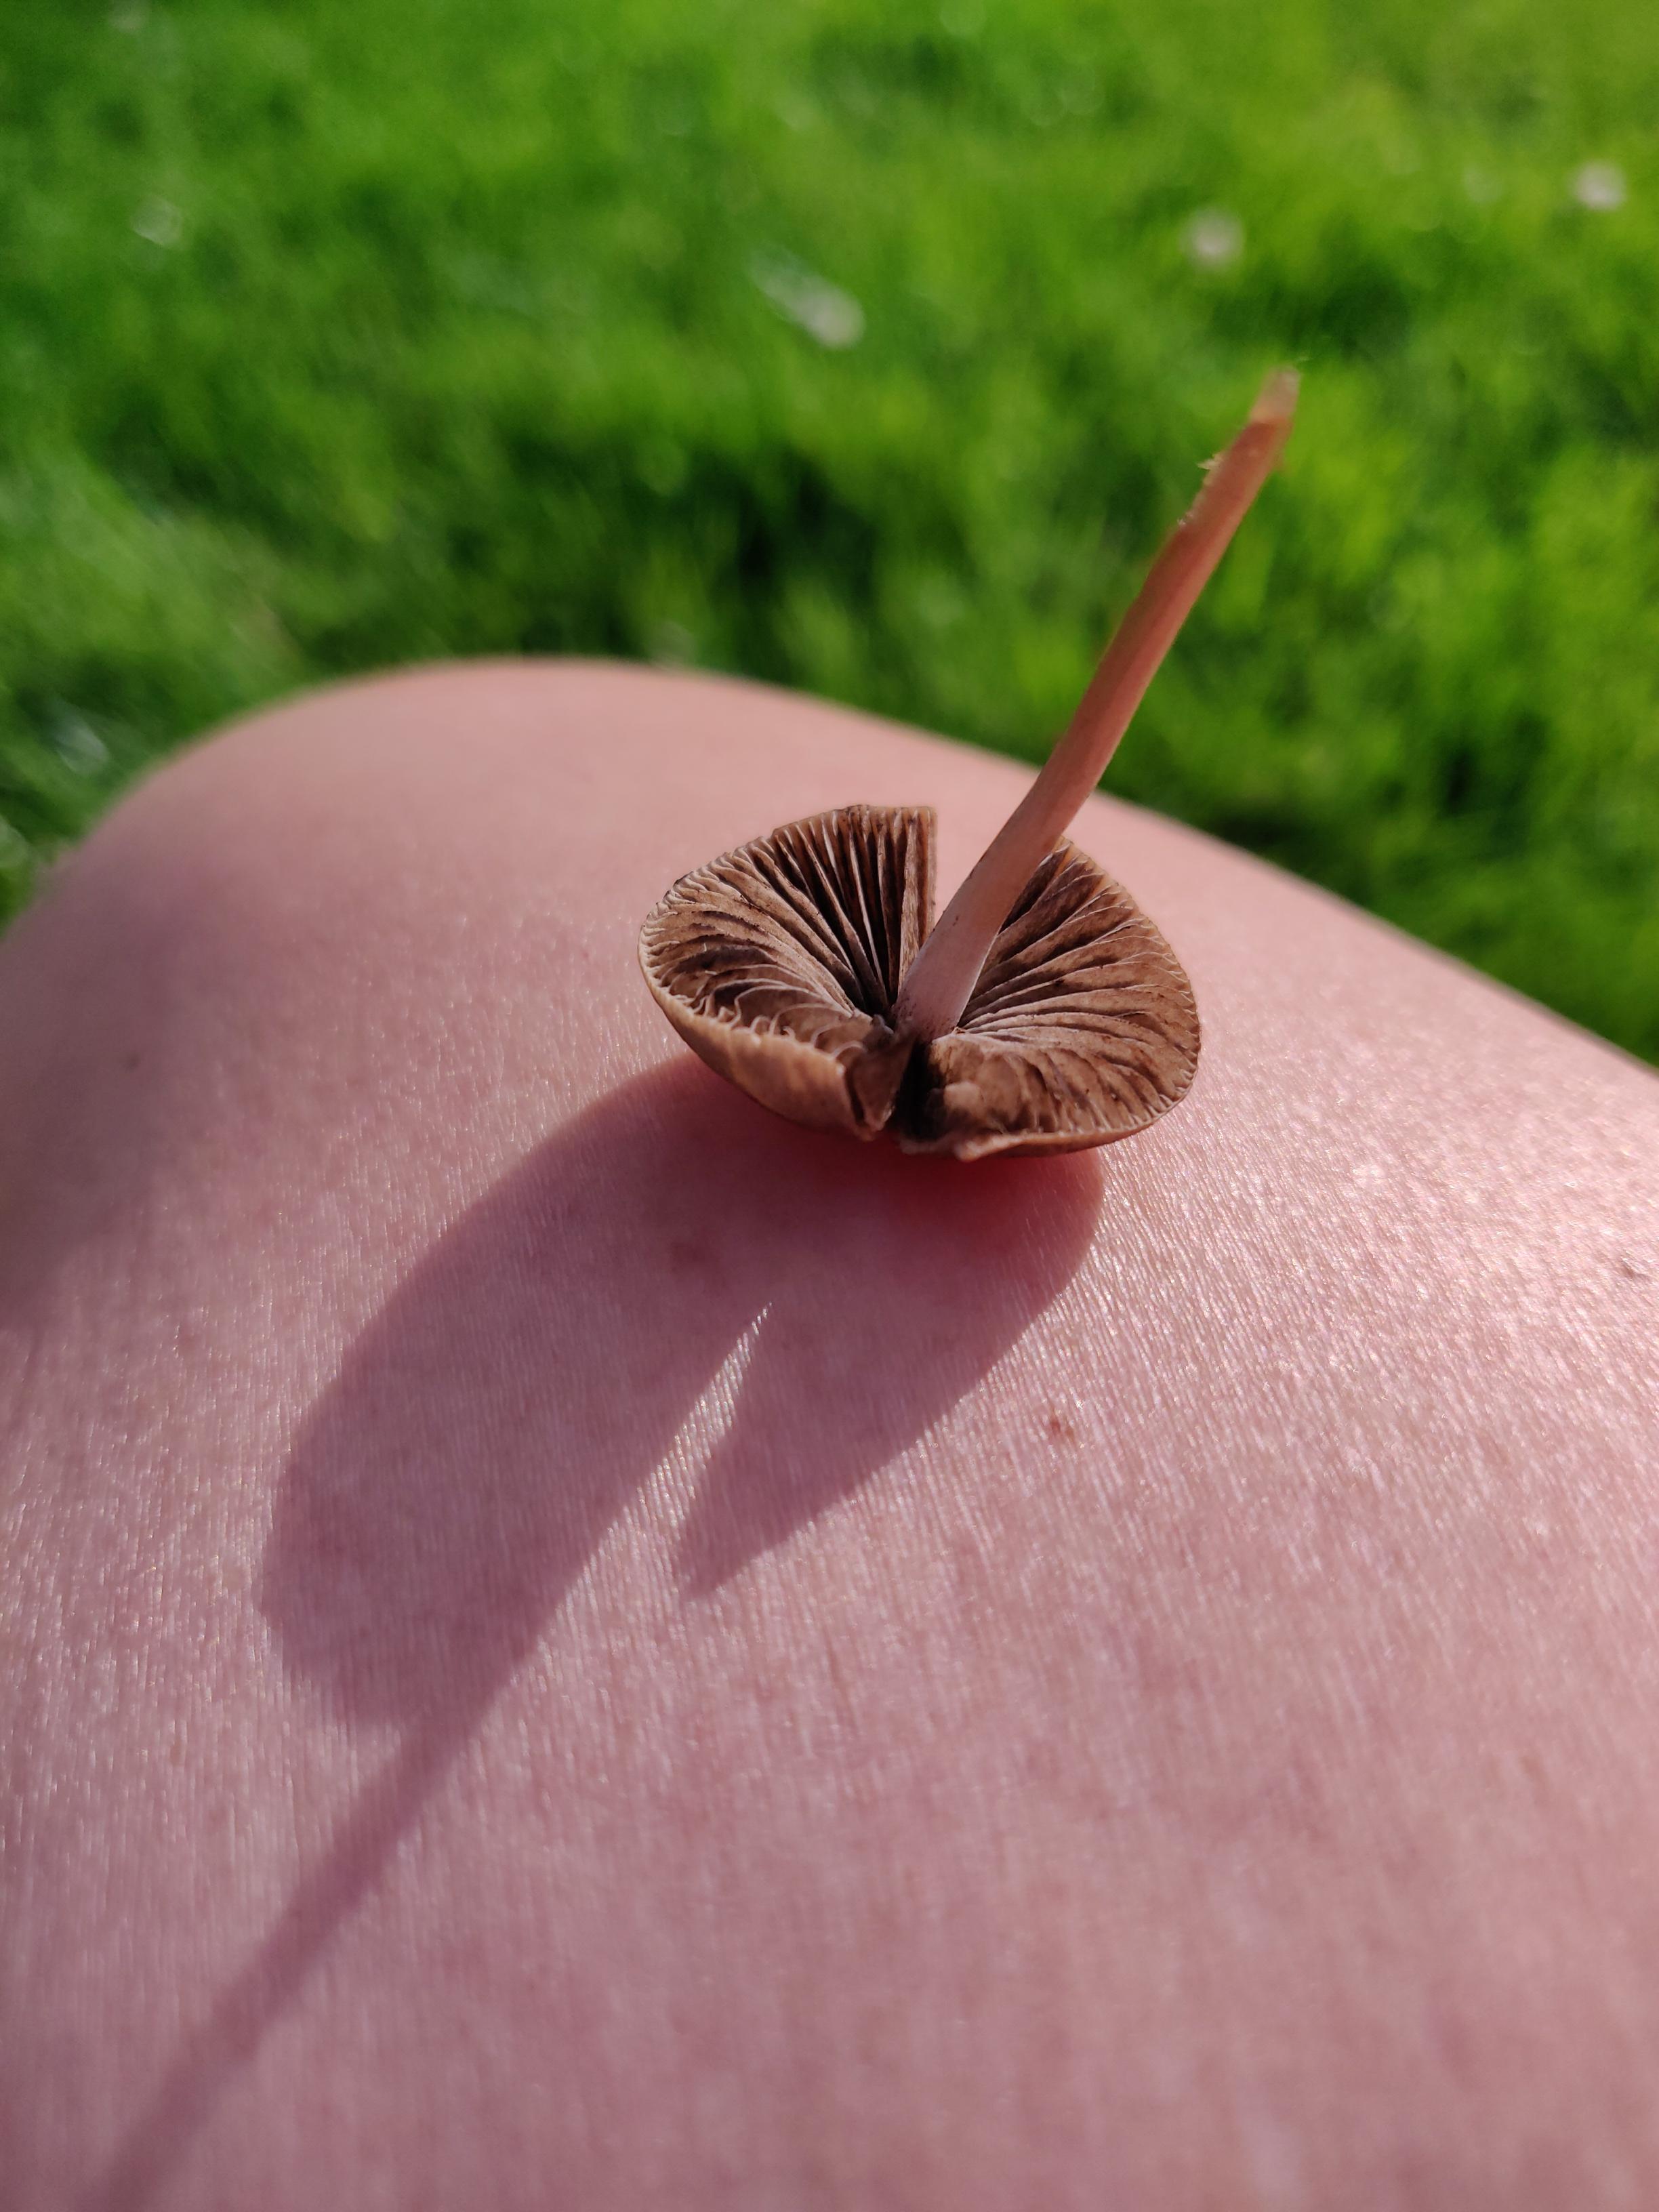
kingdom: Fungi
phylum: Basidiomycota
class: Agaricomycetes
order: Agaricales
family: Bolbitiaceae
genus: Panaeolina
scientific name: Panaeolina foenisecii
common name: høslætsvamp
